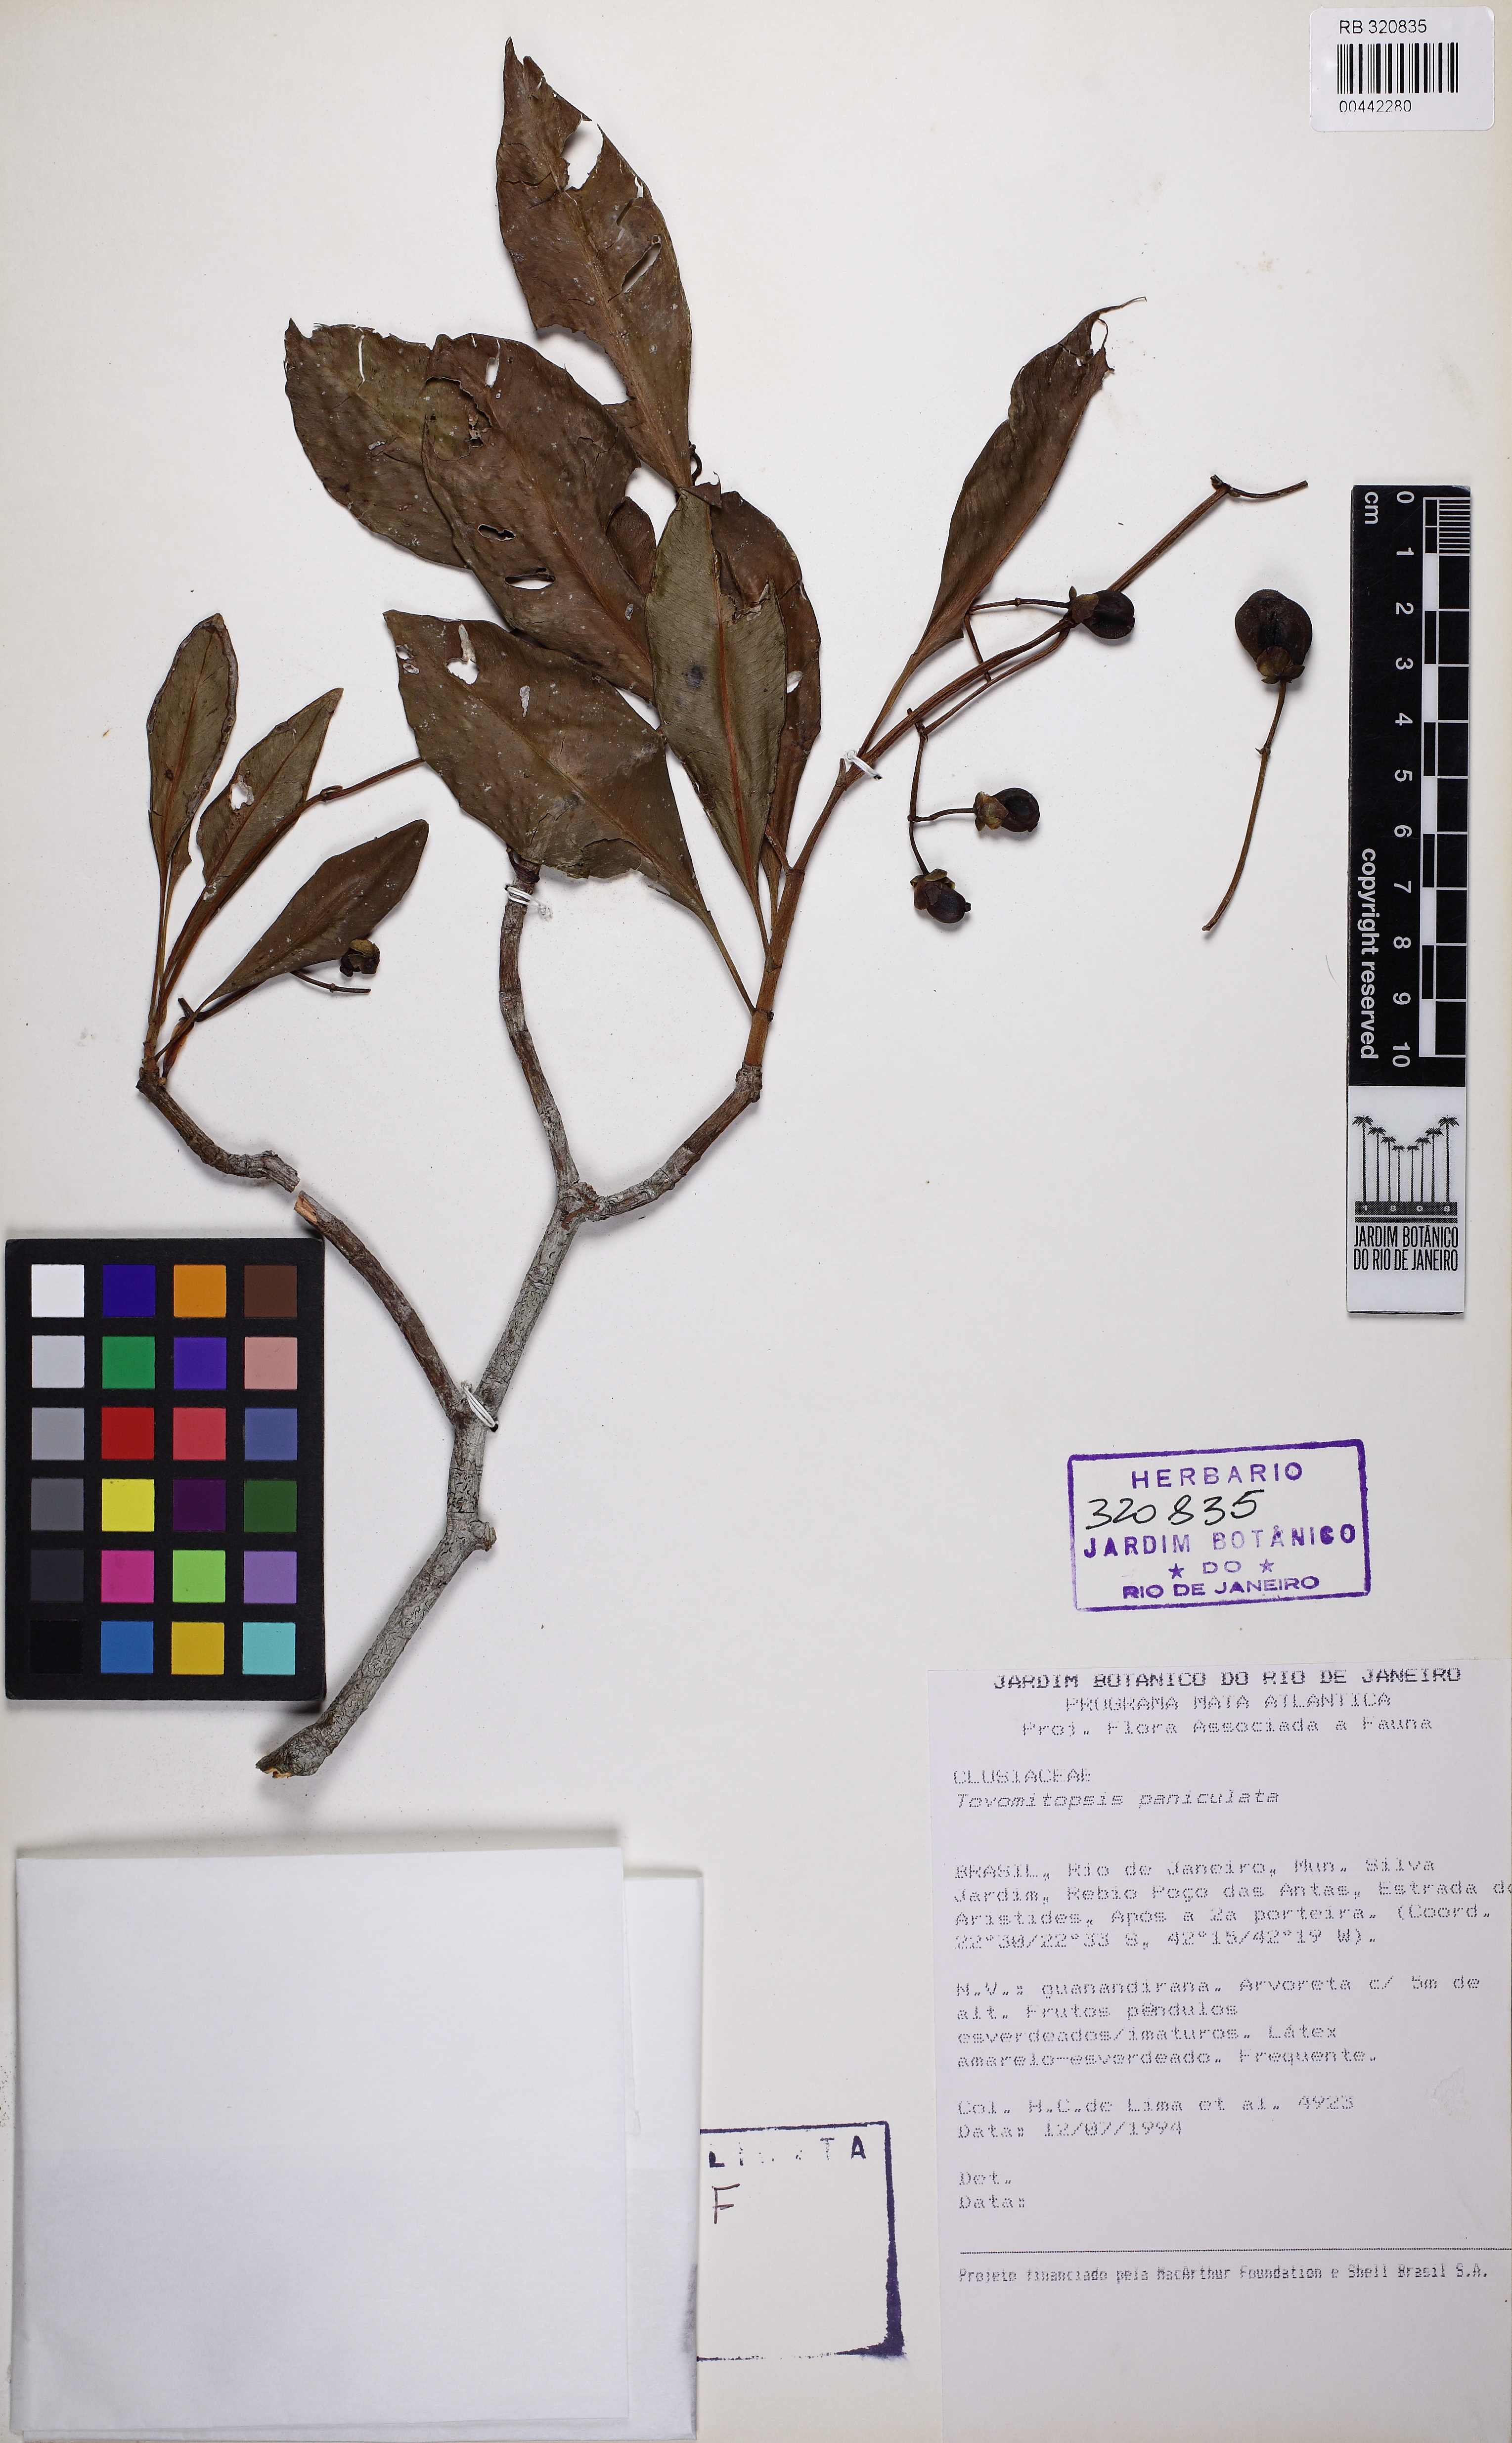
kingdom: Plantae
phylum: Tracheophyta
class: Magnoliopsida
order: Malpighiales
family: Clusiaceae
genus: Chrysochlamys
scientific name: Chrysochlamys paniculata
